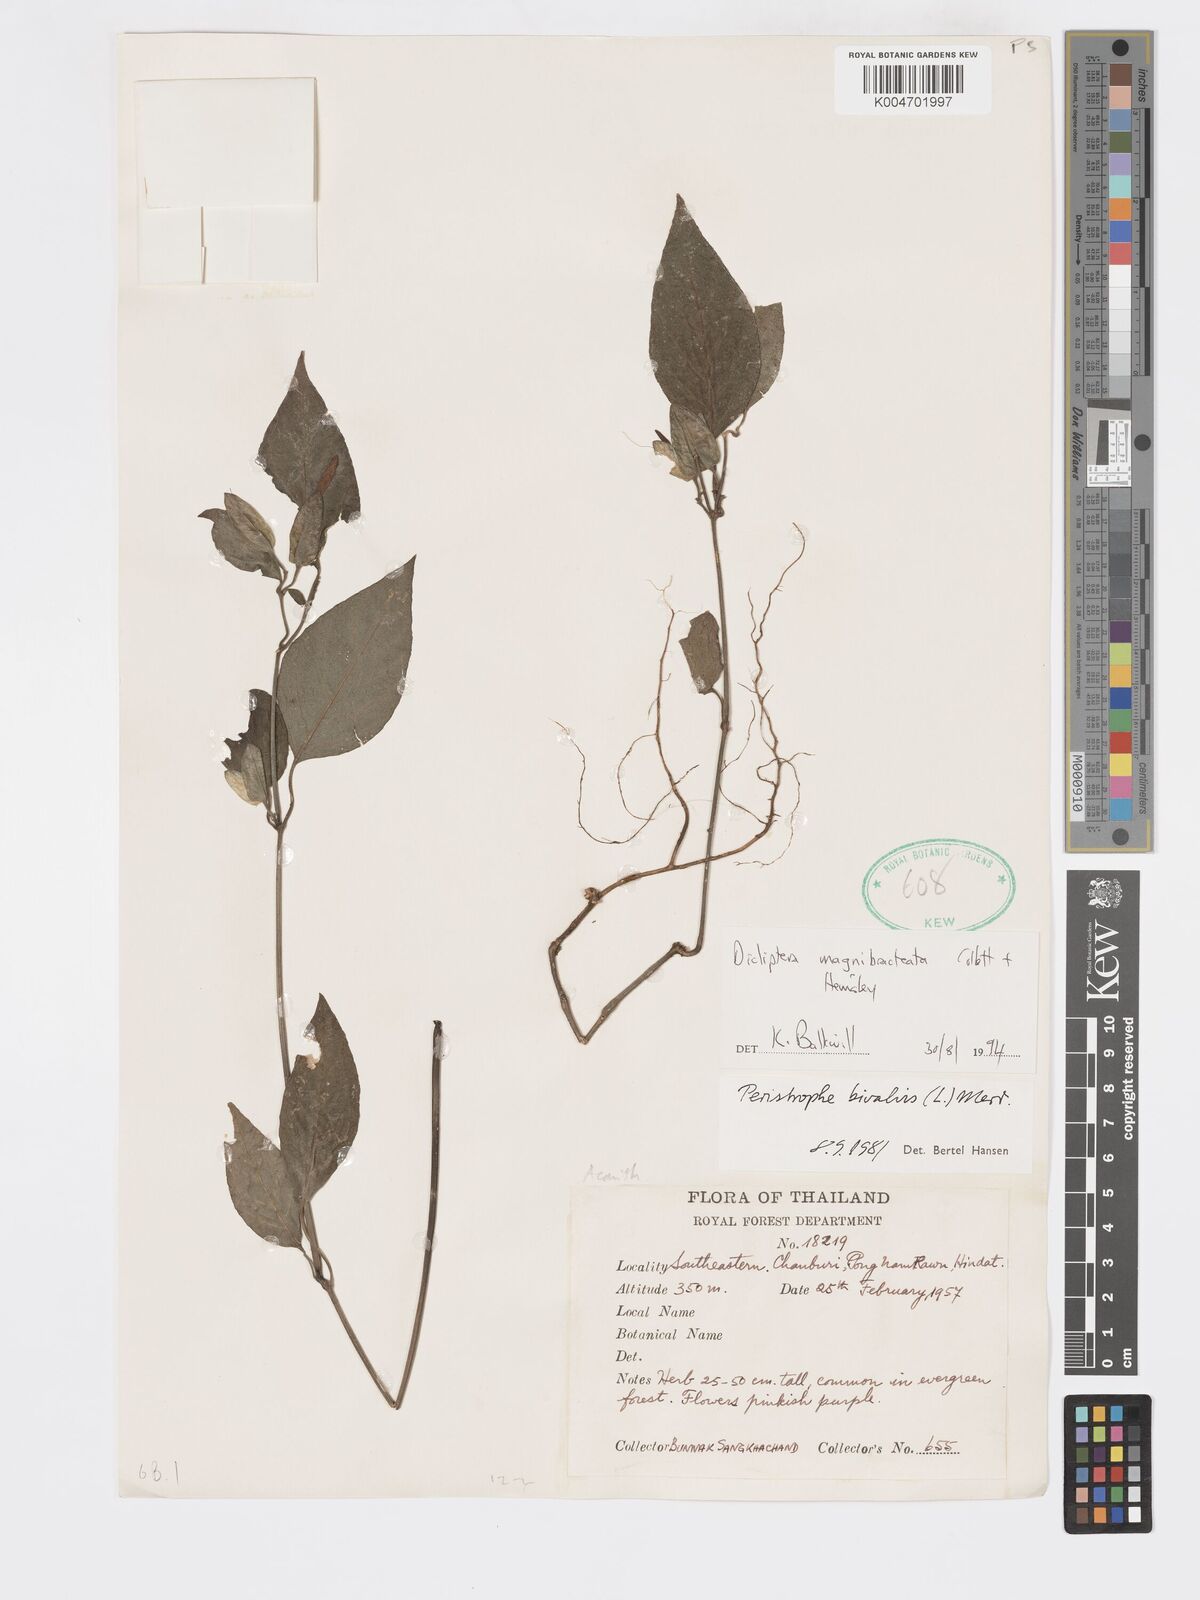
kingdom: Plantae
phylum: Tracheophyta
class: Magnoliopsida
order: Lamiales
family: Acanthaceae
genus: Dicliptera
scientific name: Dicliptera magnibracteata
